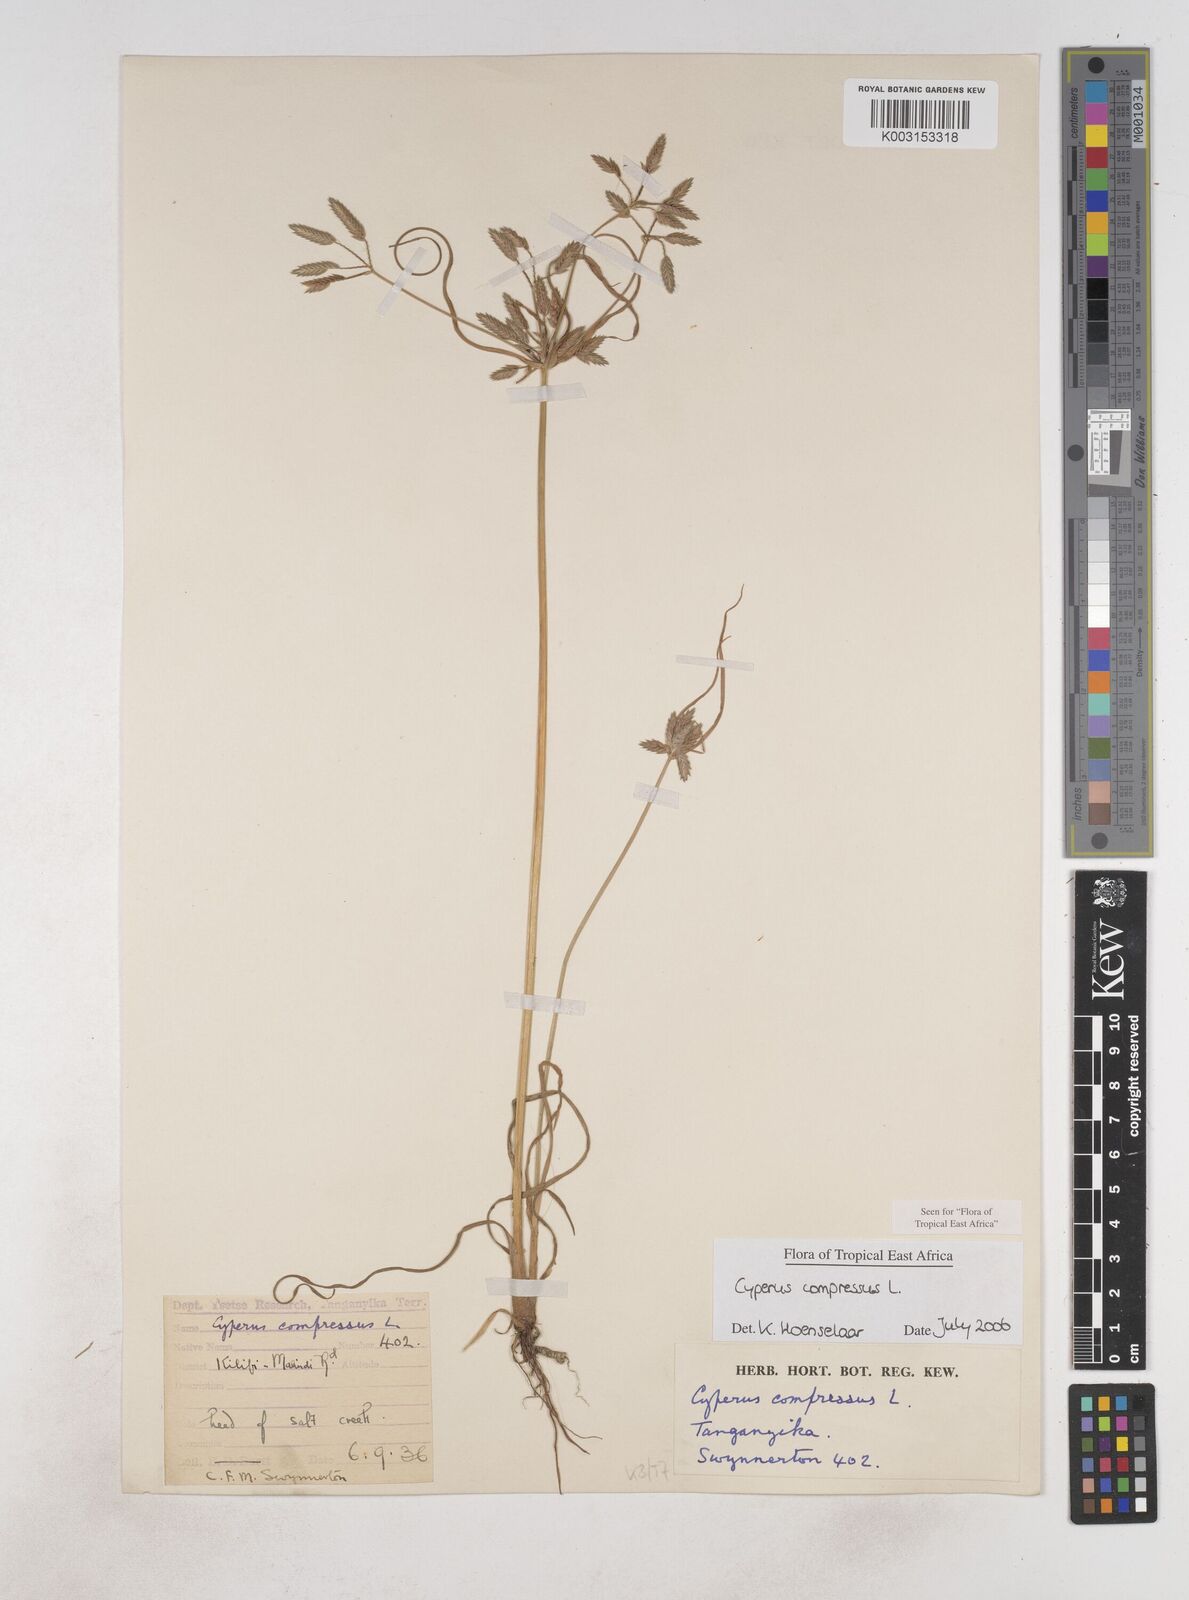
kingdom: Plantae
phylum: Tracheophyta
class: Liliopsida
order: Poales
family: Cyperaceae
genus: Cyperus
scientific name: Cyperus compressus
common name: Poorland flatsedge
